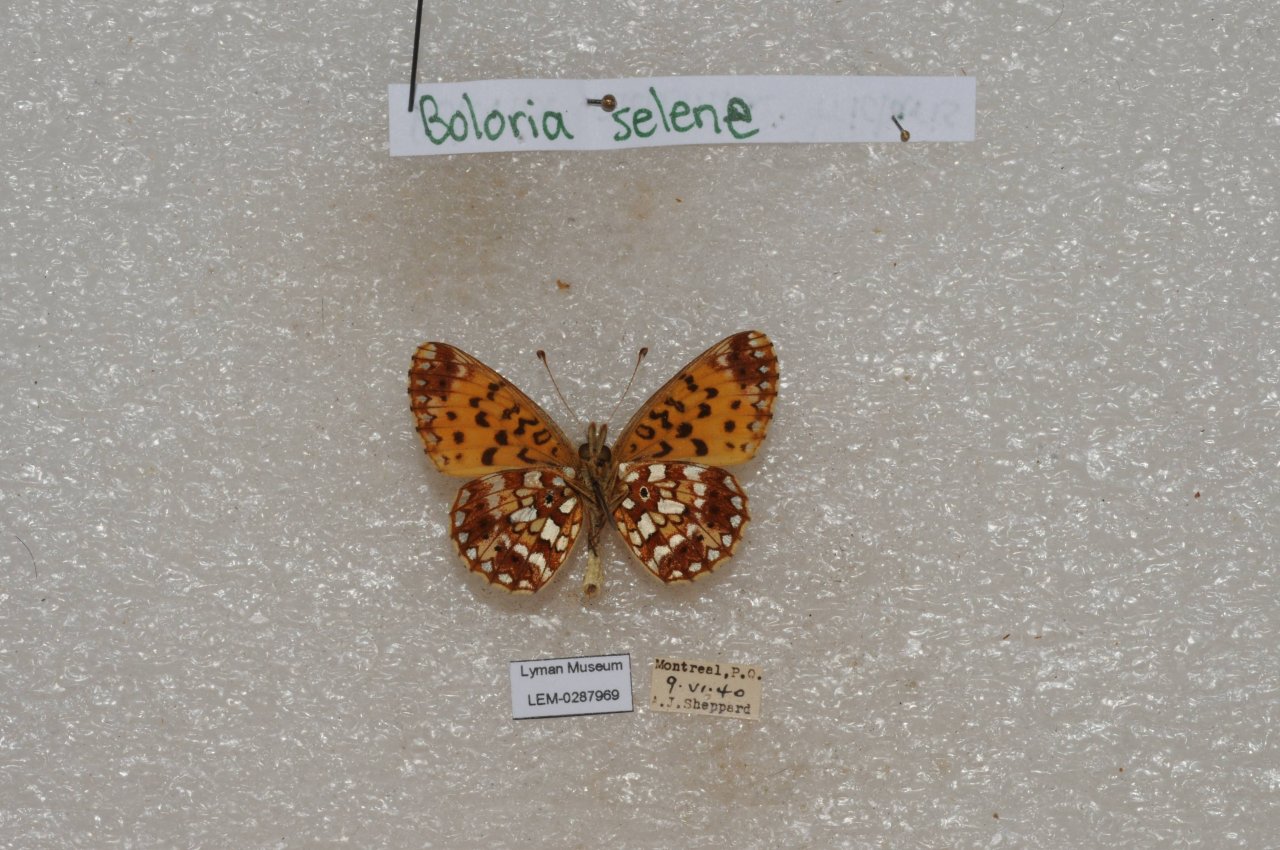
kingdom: Animalia
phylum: Arthropoda
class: Insecta
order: Lepidoptera
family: Nymphalidae
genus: Boloria
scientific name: Boloria selene
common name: Silver-bordered Fritillary
